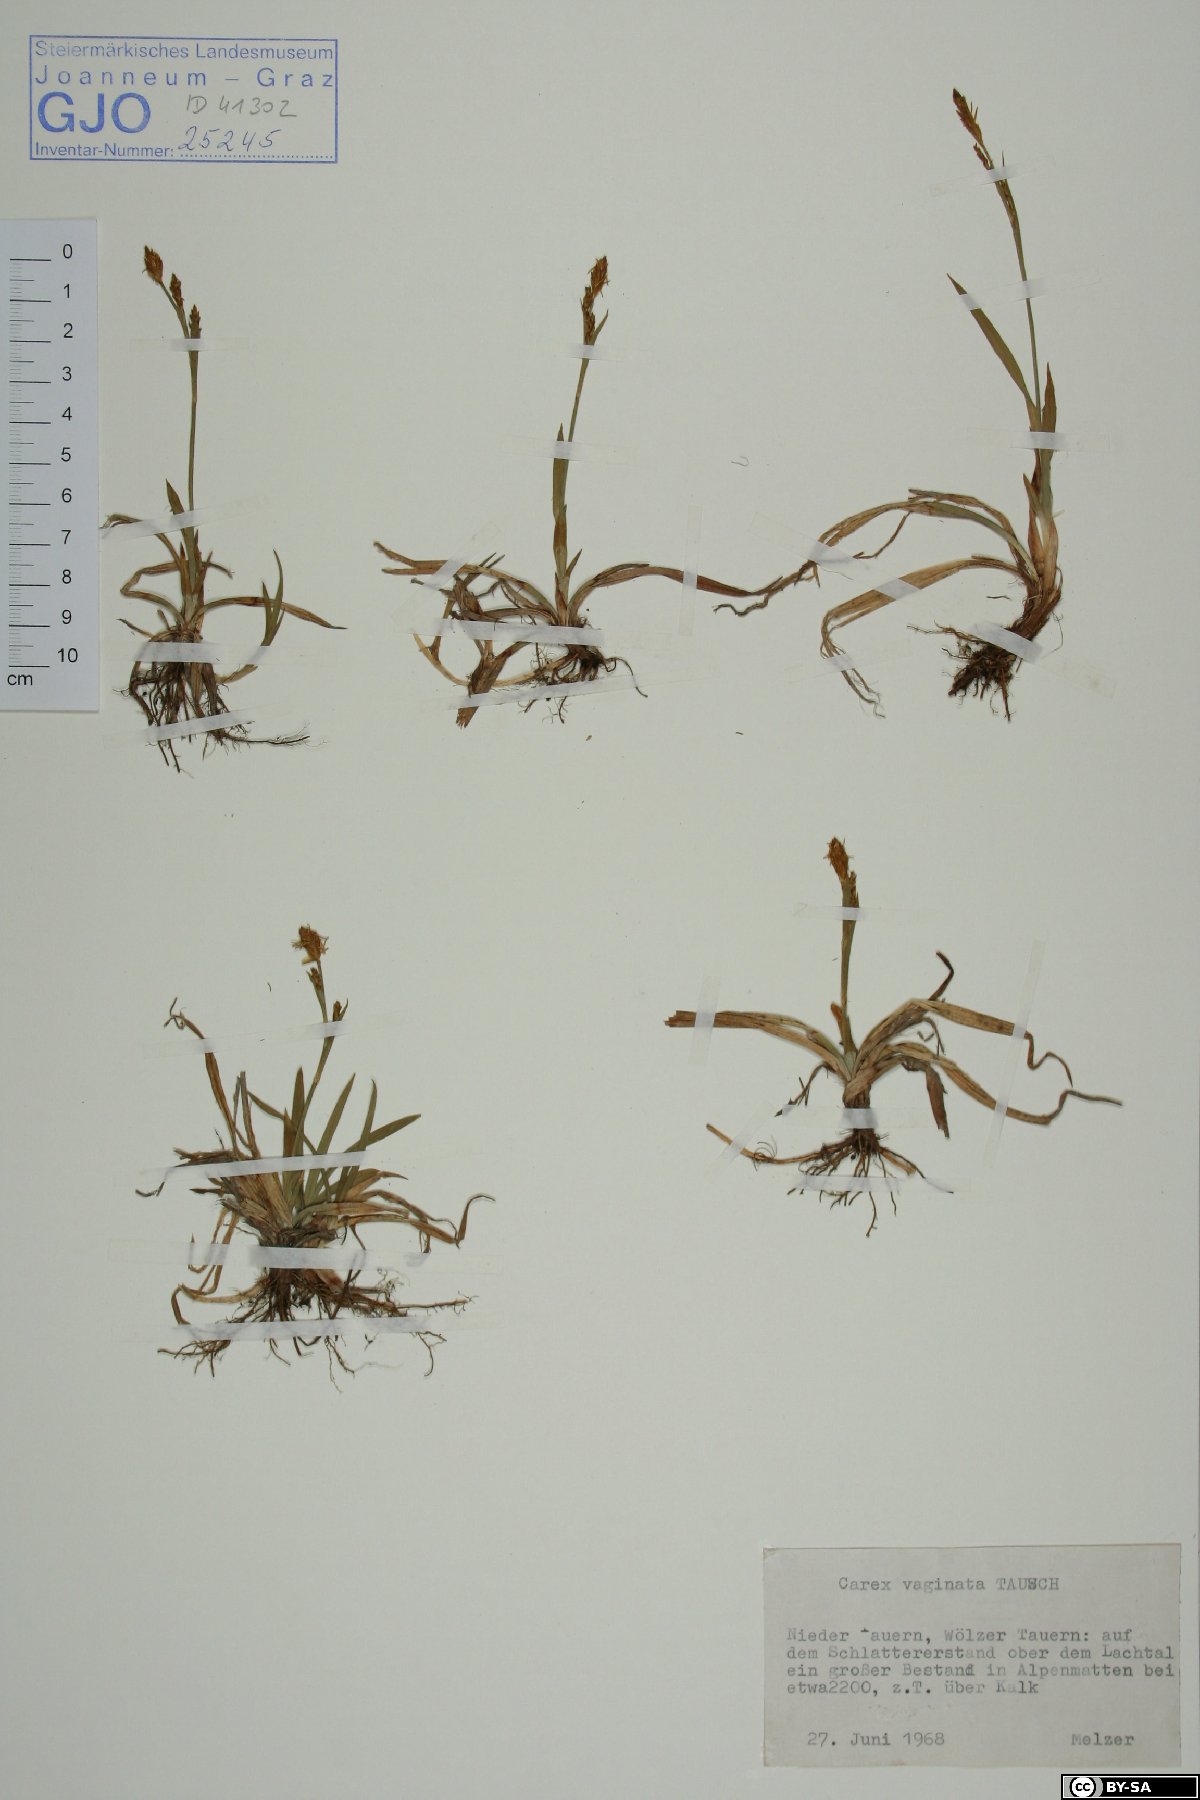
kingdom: Plantae
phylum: Tracheophyta
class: Liliopsida
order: Poales
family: Cyperaceae
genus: Carex
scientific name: Carex vaginata
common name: Sheathed sedge
